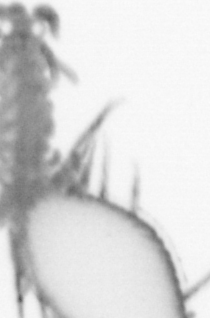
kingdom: Animalia
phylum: Annelida
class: Polychaeta
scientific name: Polychaeta
